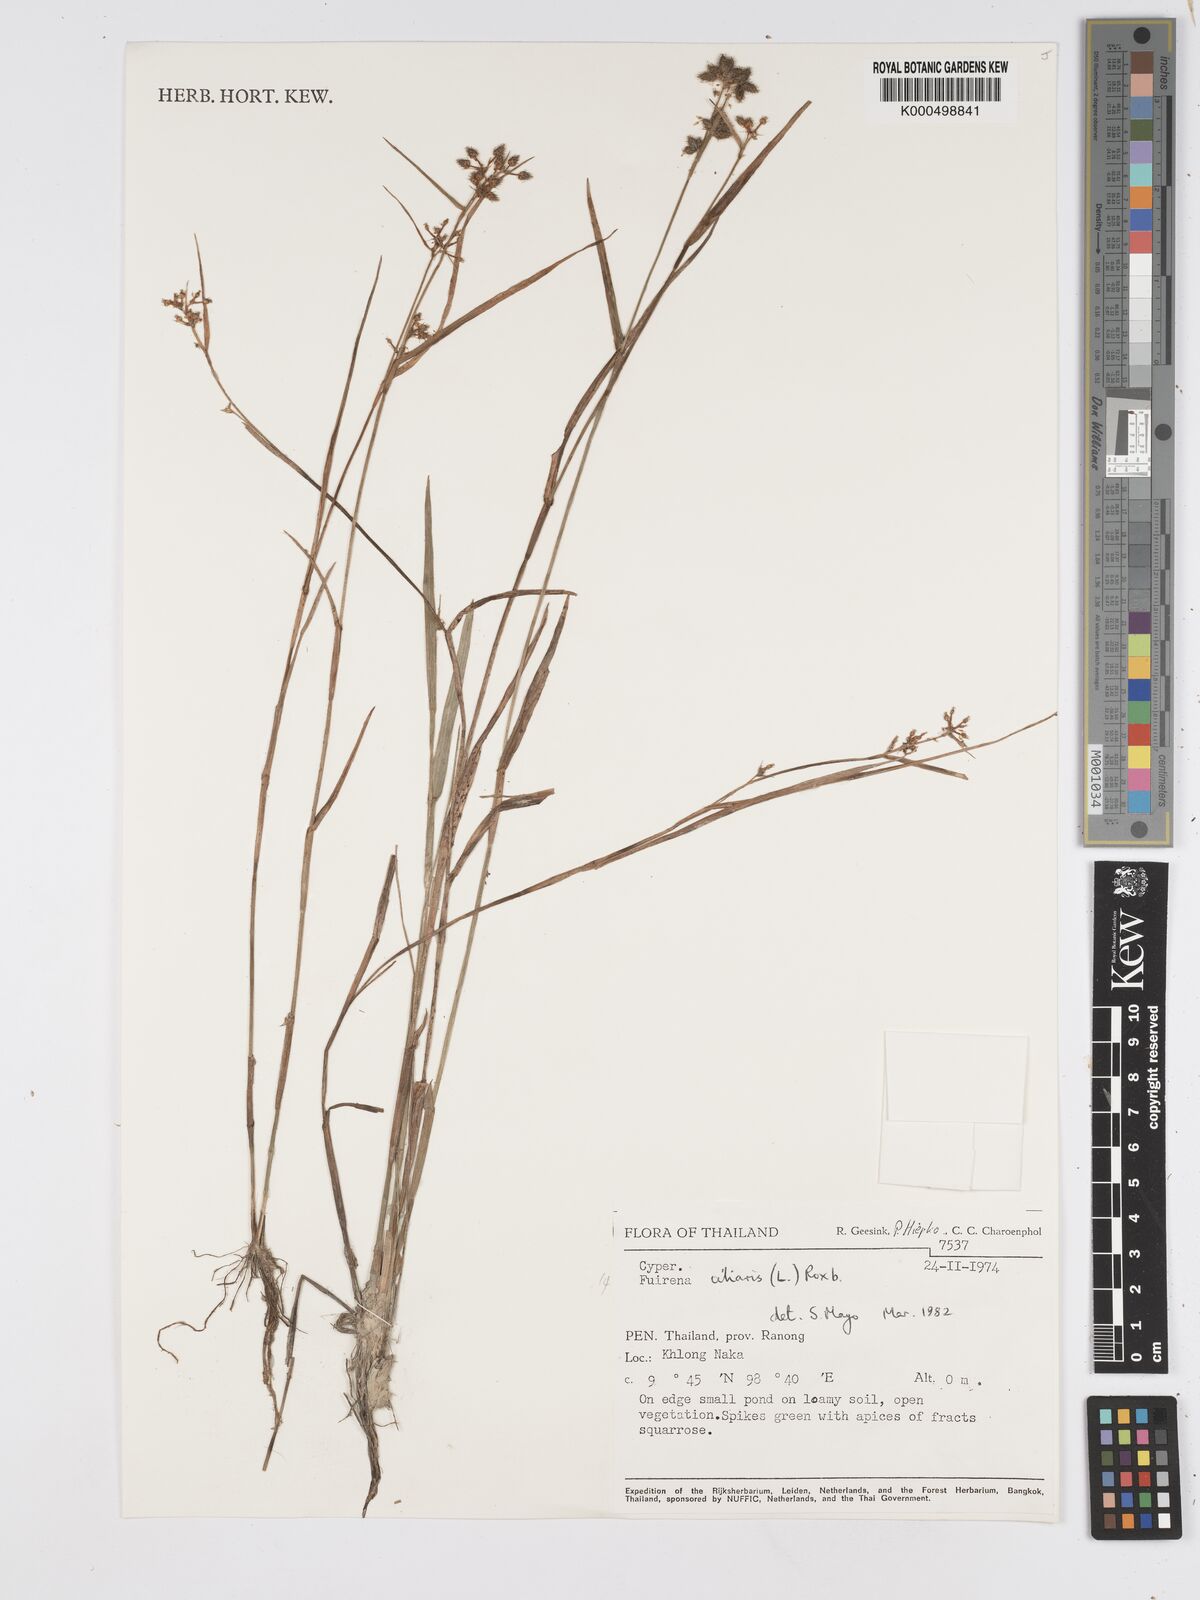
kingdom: Plantae
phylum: Tracheophyta
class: Liliopsida
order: Poales
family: Cyperaceae
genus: Fuirena
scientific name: Fuirena ciliaris
